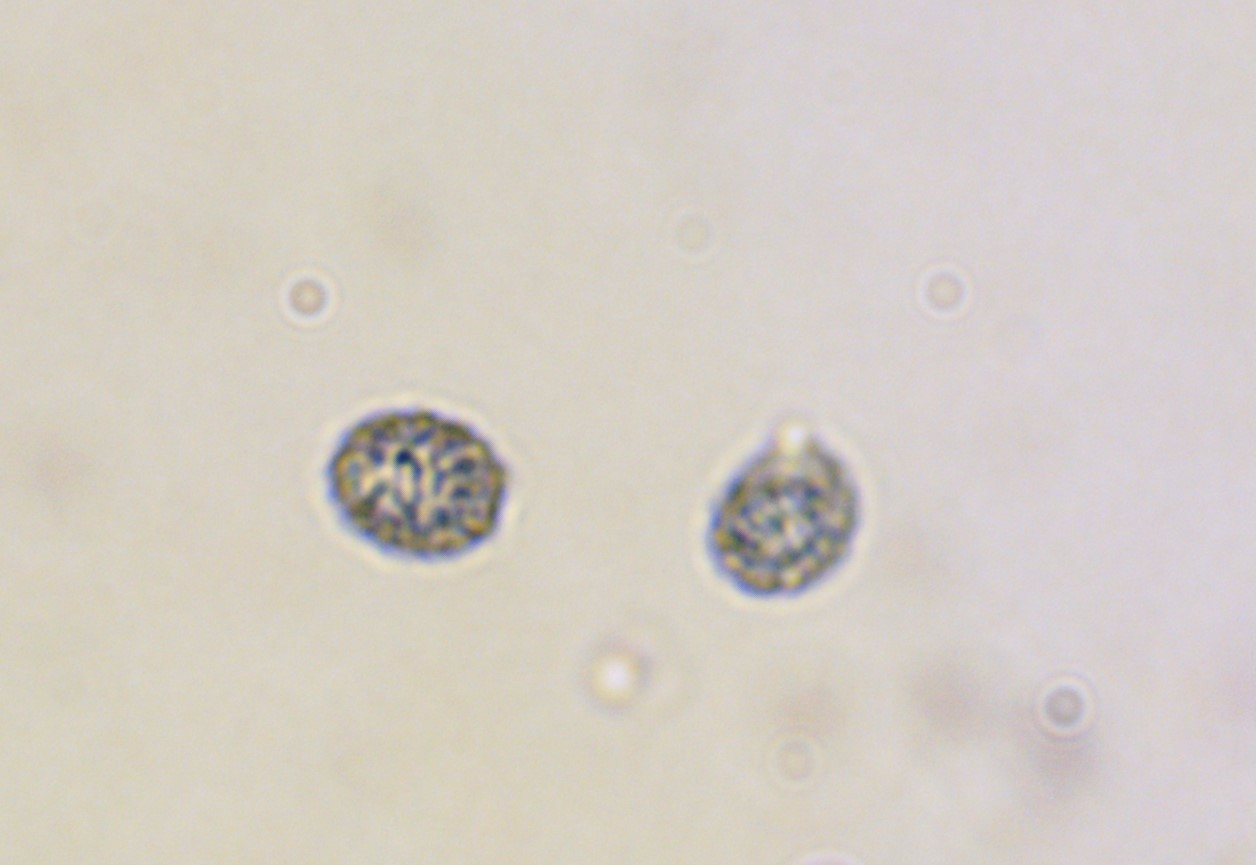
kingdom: Fungi
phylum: Basidiomycota
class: Agaricomycetes
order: Russulales
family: Russulaceae
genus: Russula
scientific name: Russula parazurea
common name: blågrå skørhat
